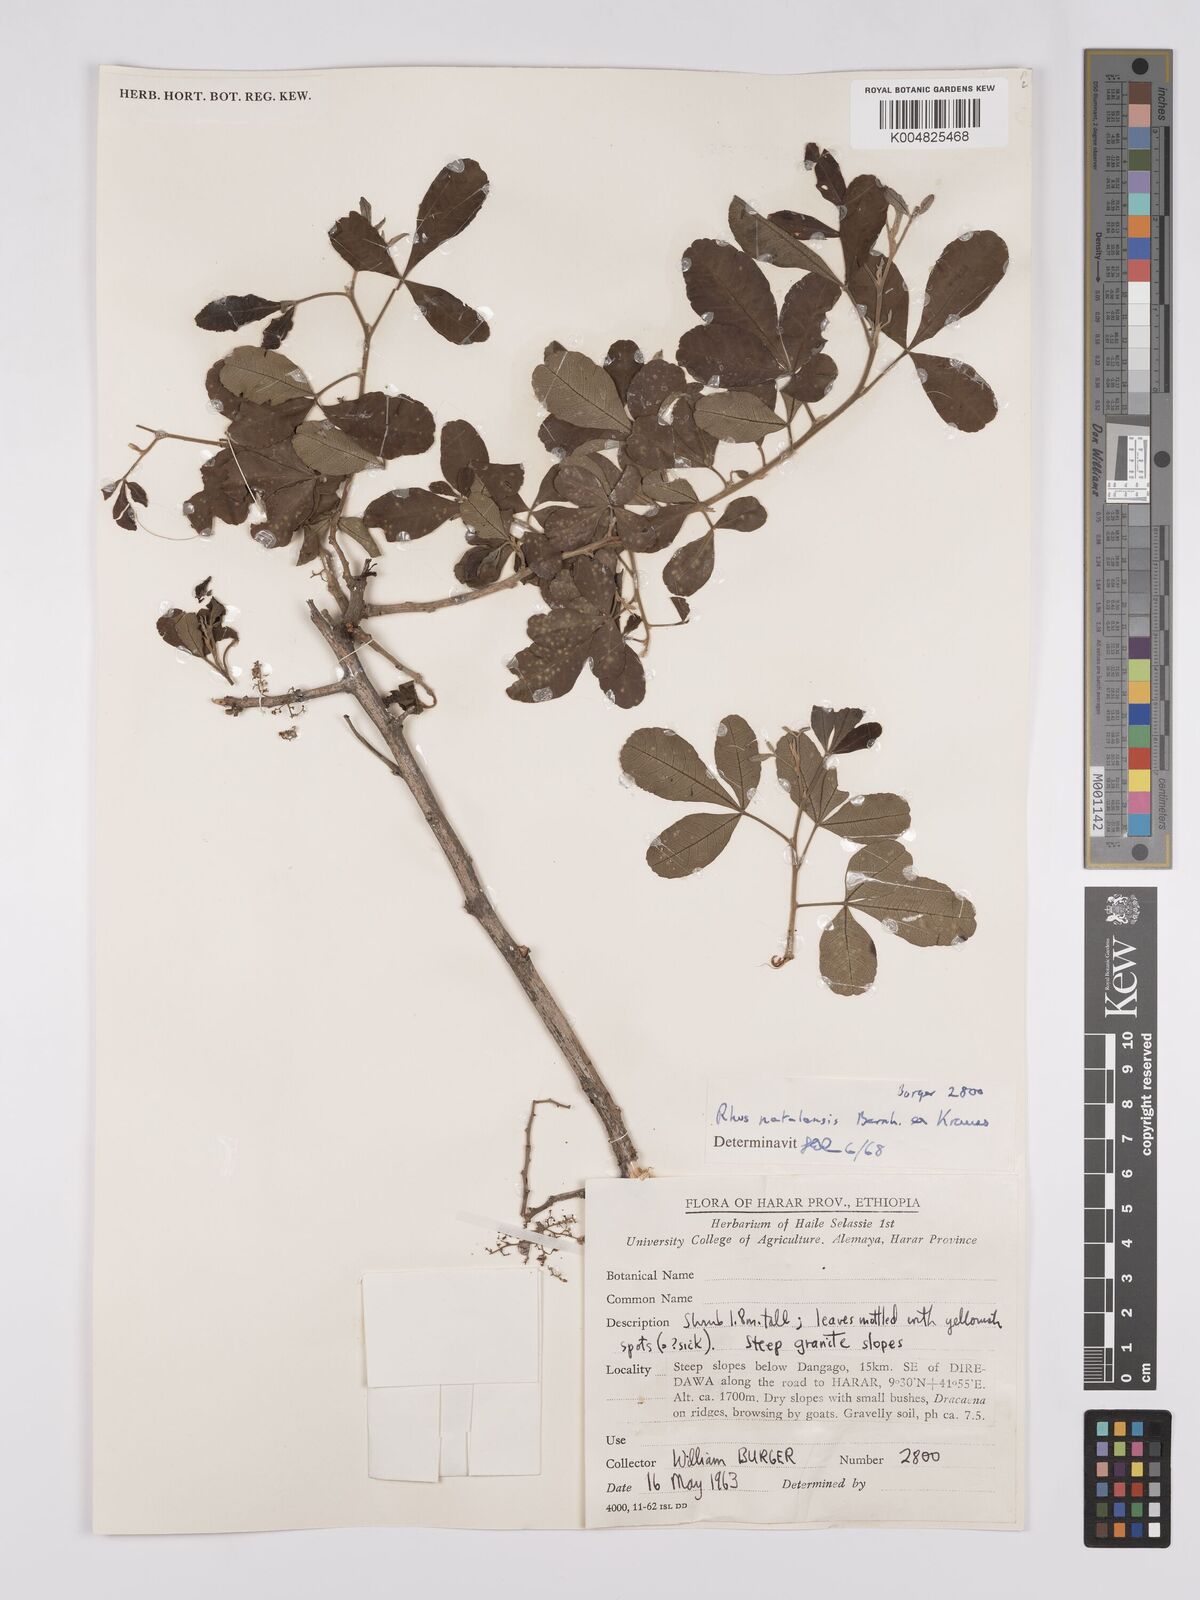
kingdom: Plantae
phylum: Tracheophyta
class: Magnoliopsida
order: Sapindales
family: Anacardiaceae
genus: Searsia
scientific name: Searsia natalensis
